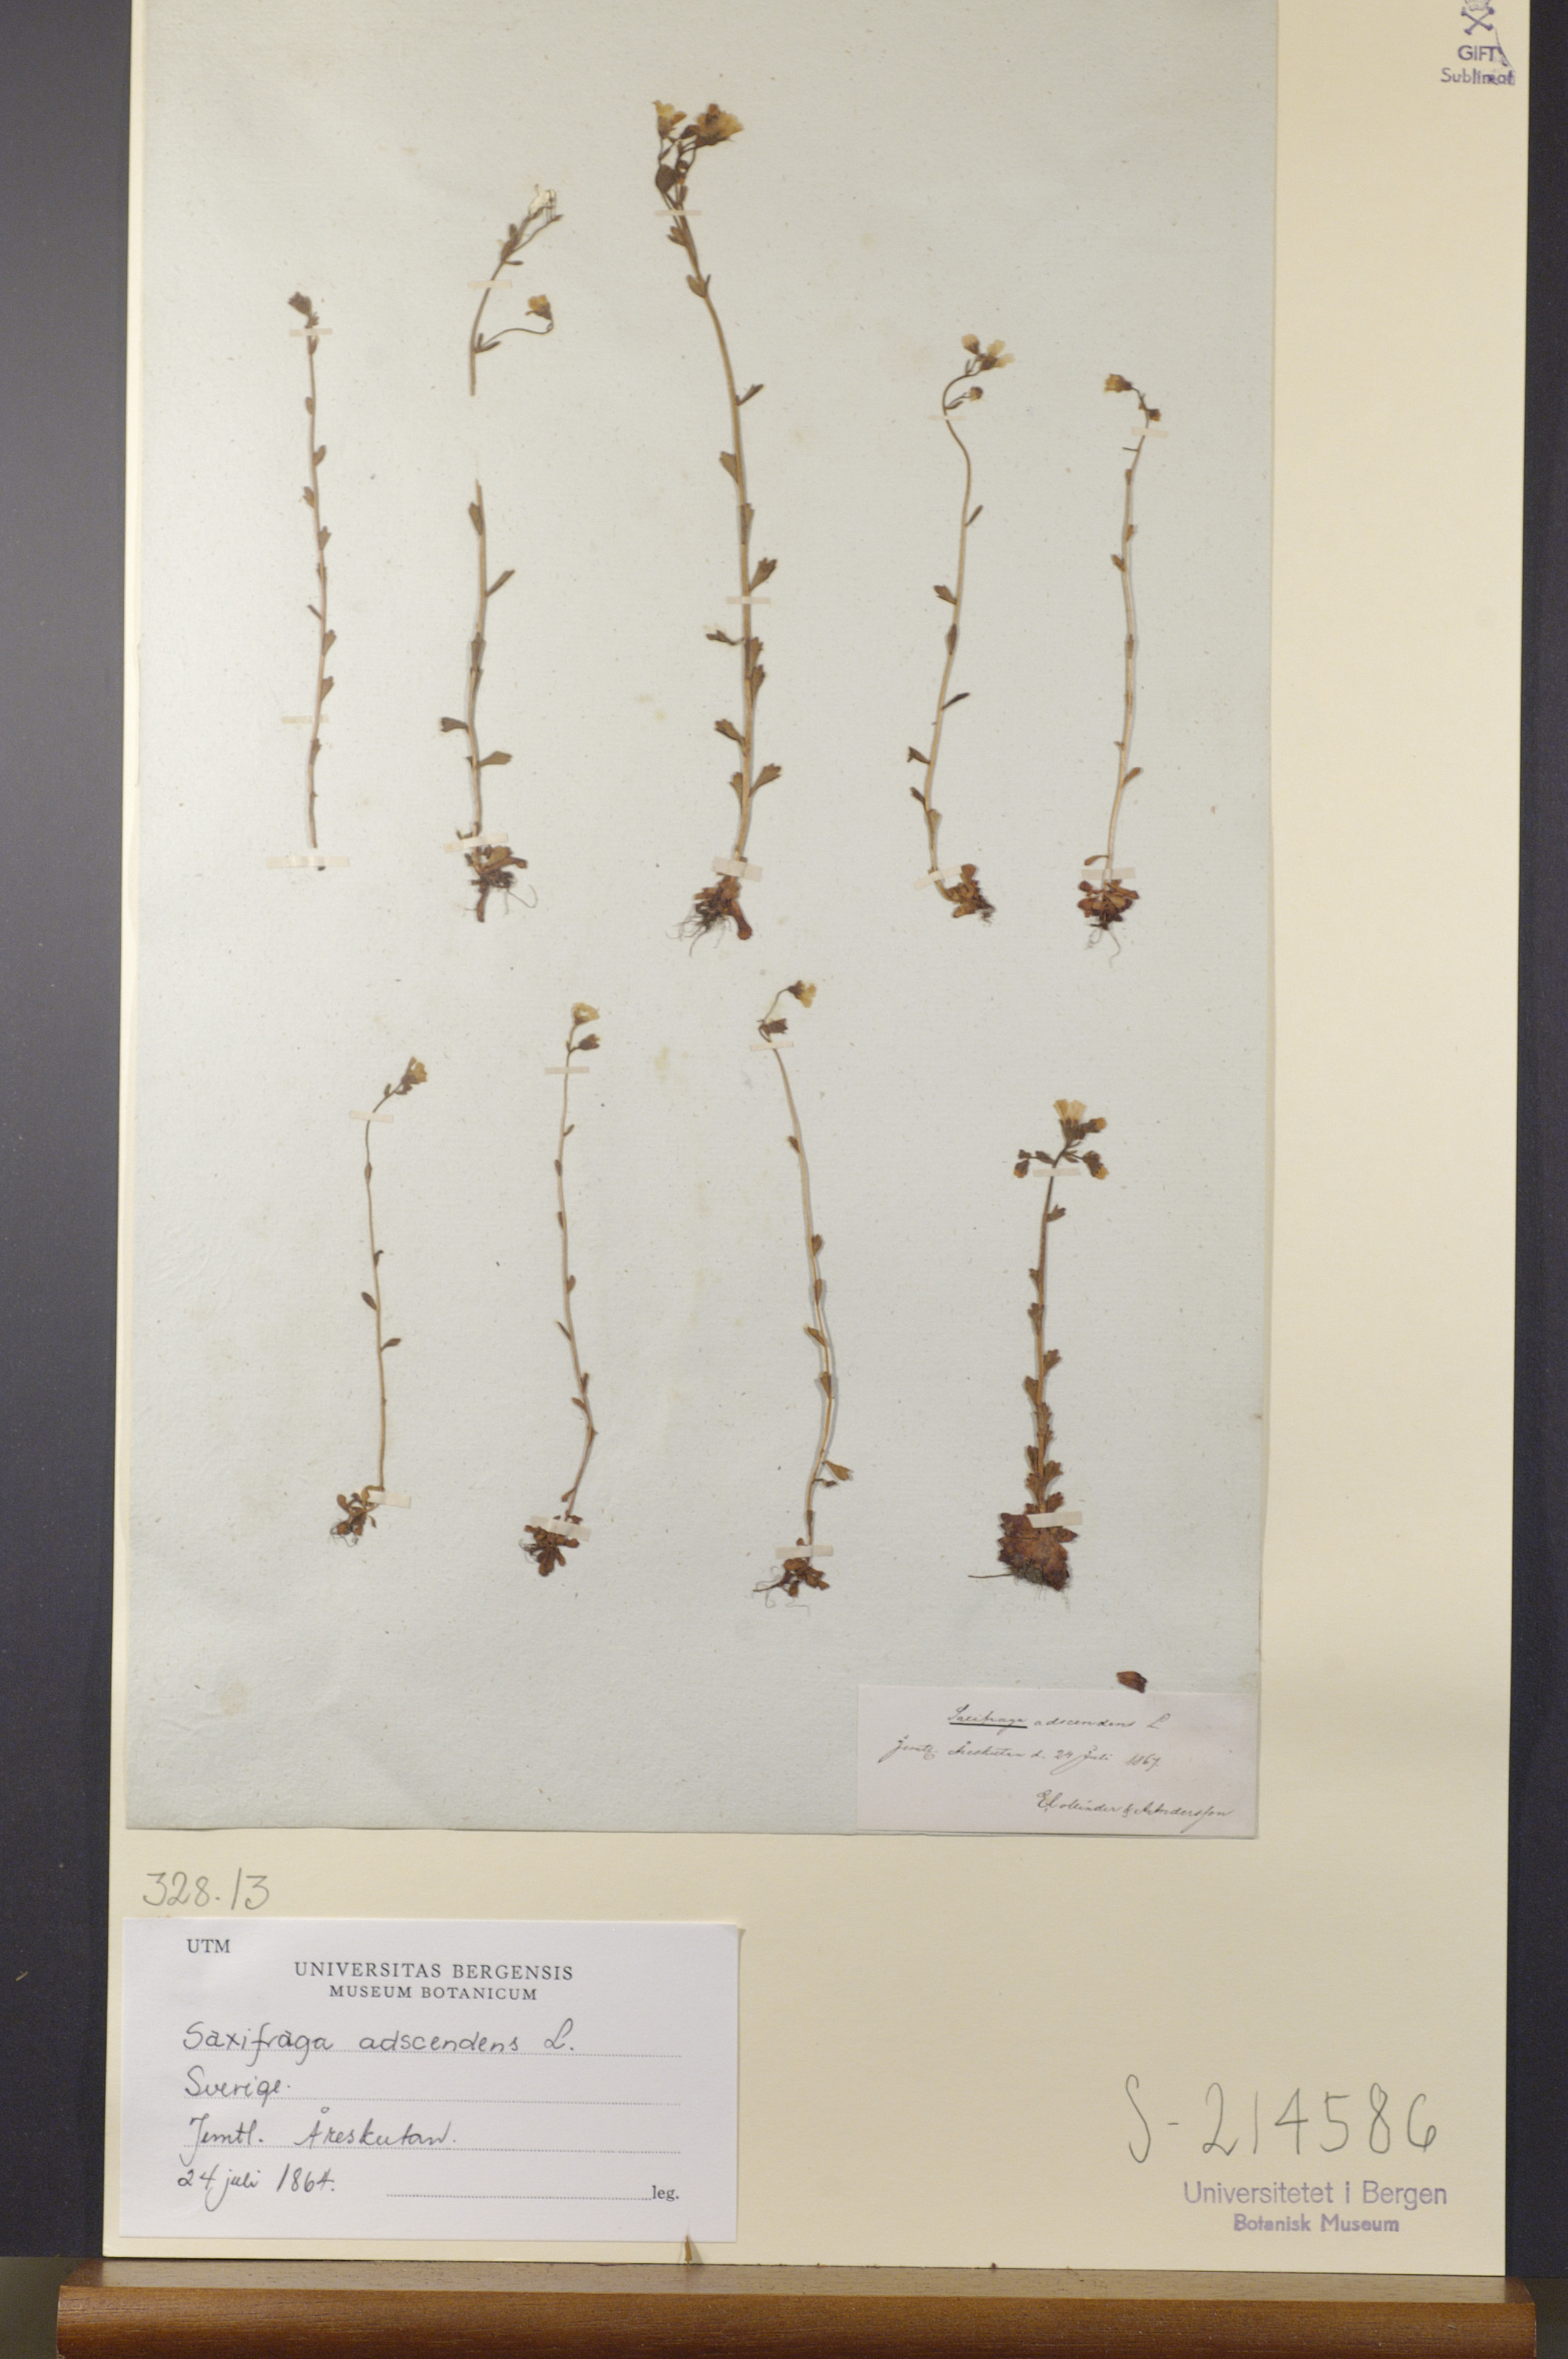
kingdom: Plantae
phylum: Tracheophyta
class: Magnoliopsida
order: Saxifragales
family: Saxifragaceae
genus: Saxifraga
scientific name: Saxifraga adscendens
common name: Ascending saxifrage
